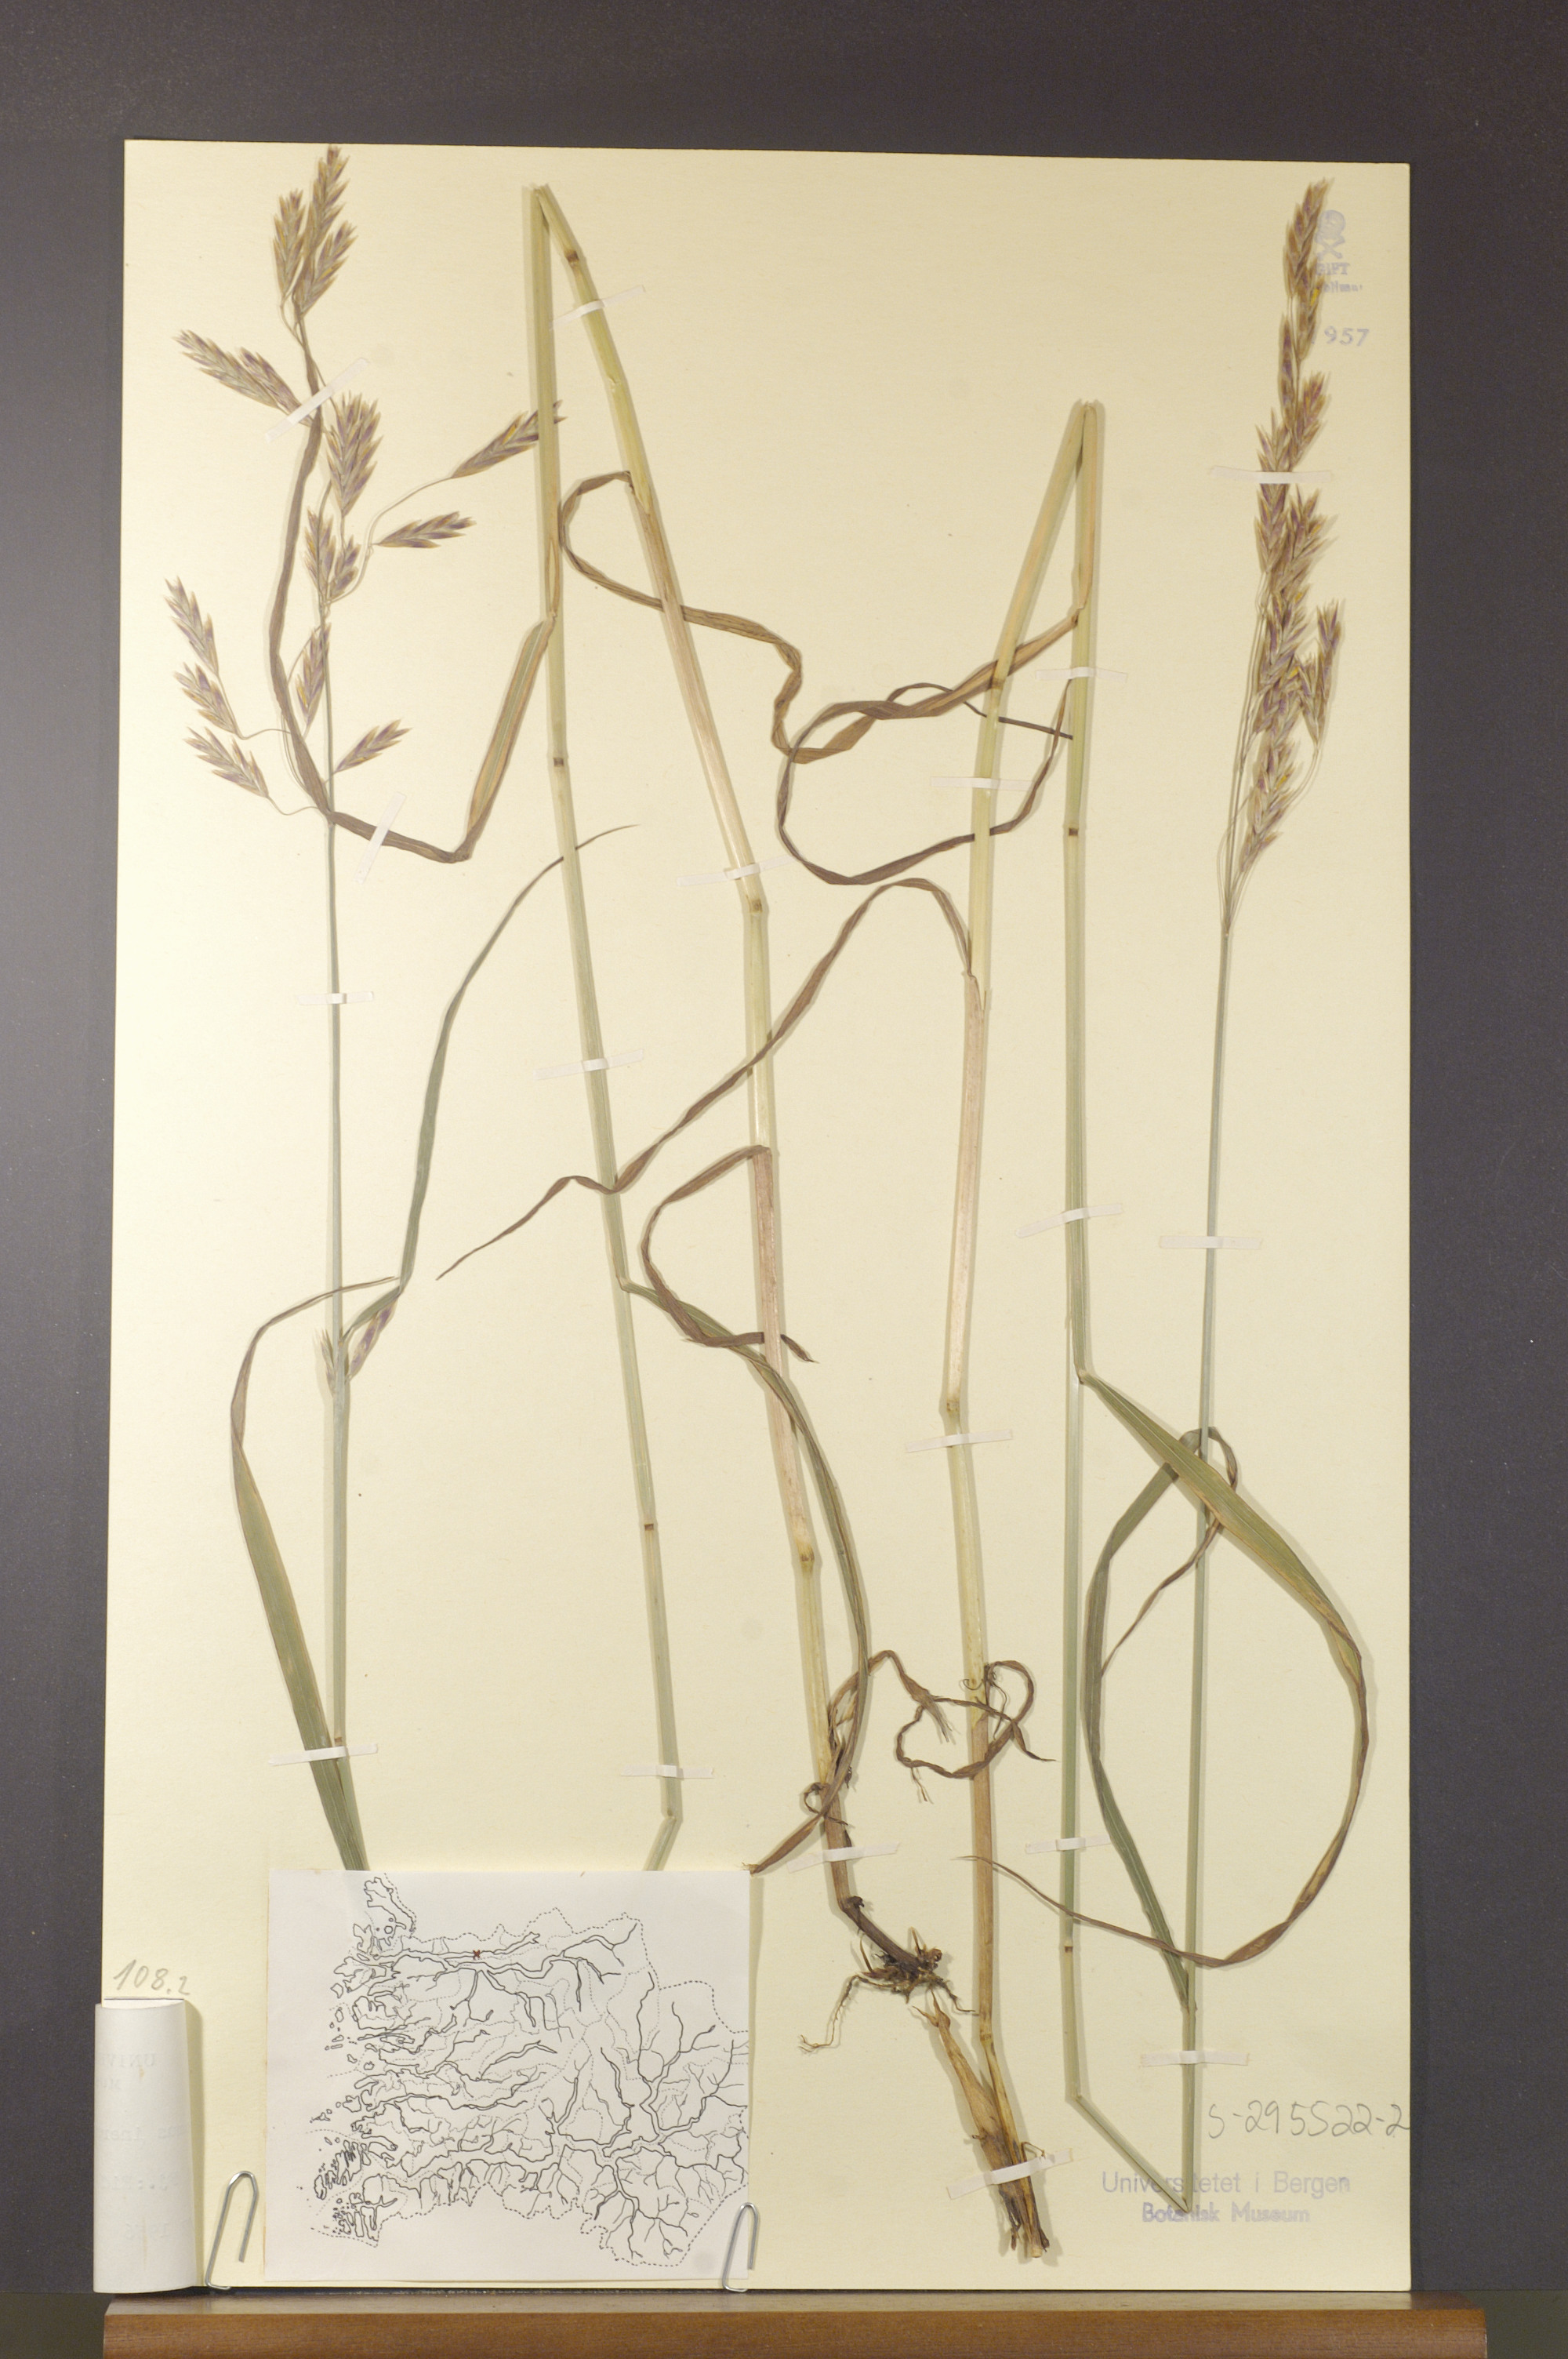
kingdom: Plantae
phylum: Tracheophyta
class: Liliopsida
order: Poales
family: Poaceae
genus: Bromus
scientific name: Bromus inermis
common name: Smooth brome
